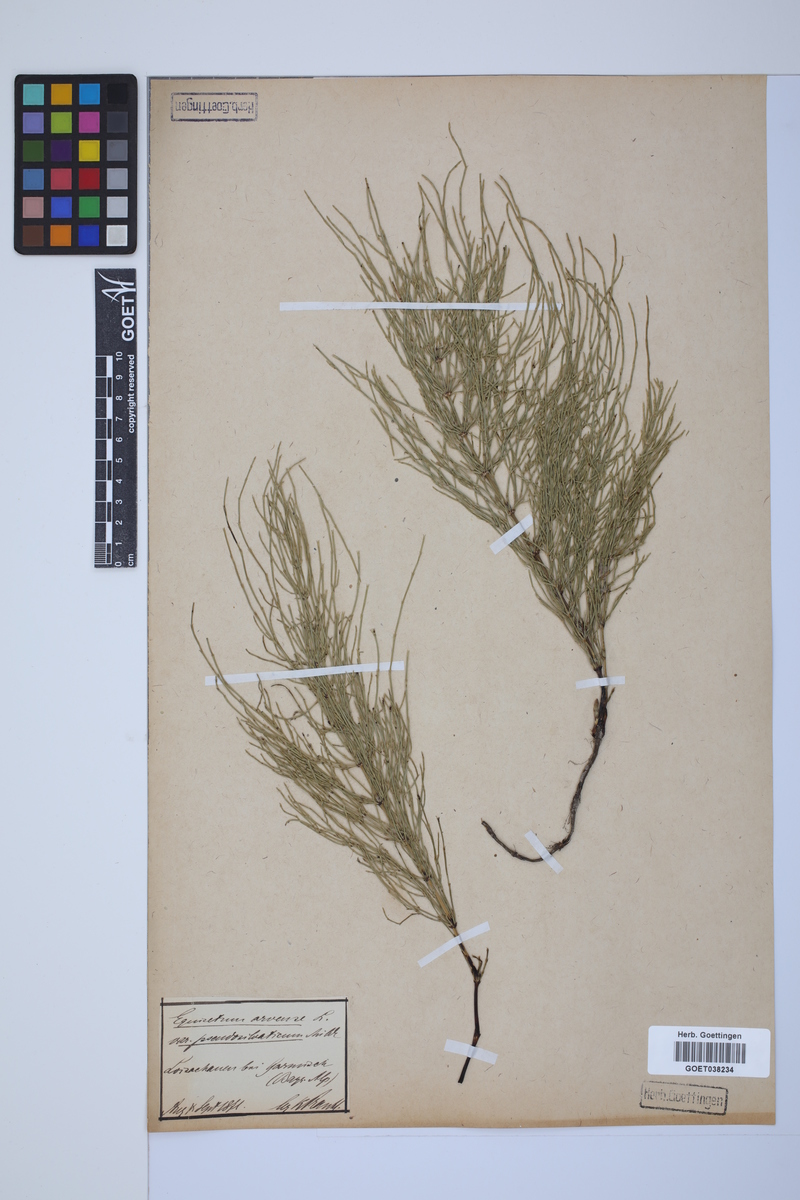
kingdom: Plantae
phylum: Tracheophyta
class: Polypodiopsida
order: Equisetales
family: Equisetaceae
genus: Equisetum
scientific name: Equisetum arvense
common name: Field horsetail
